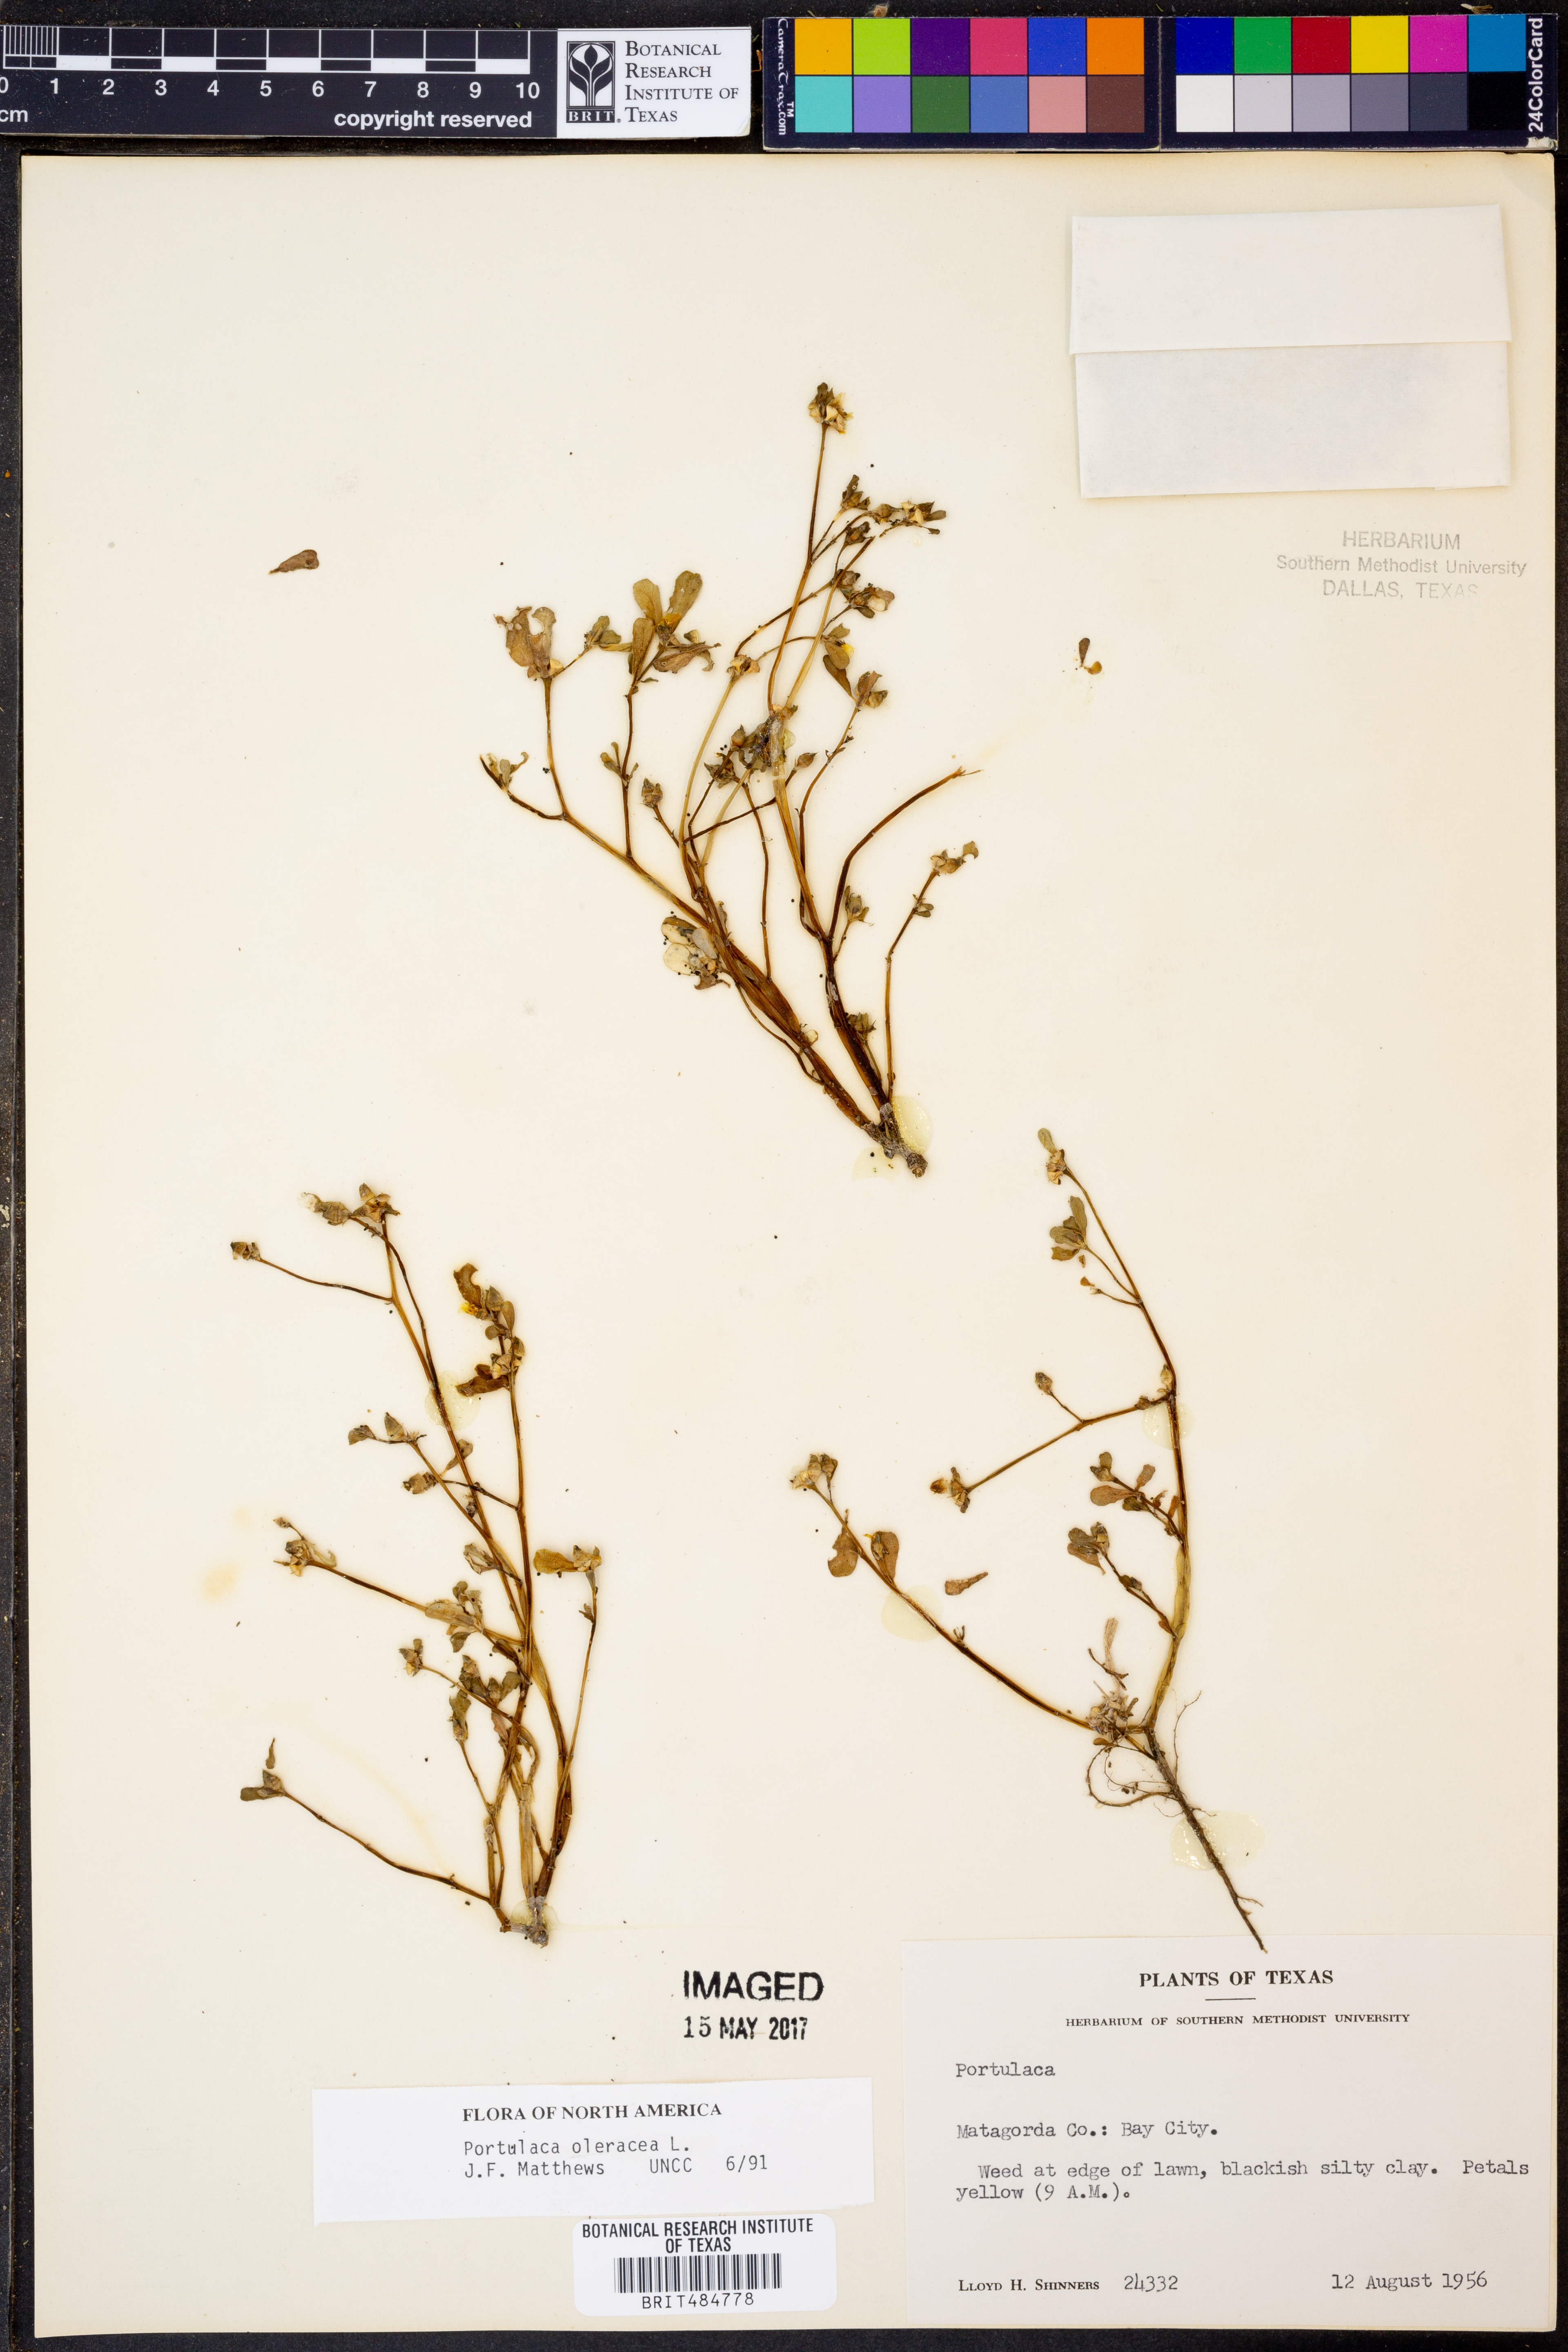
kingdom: Plantae
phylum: Tracheophyta
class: Magnoliopsida
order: Caryophyllales
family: Portulacaceae
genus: Portulaca
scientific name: Portulaca oleracea
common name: Common purslane
